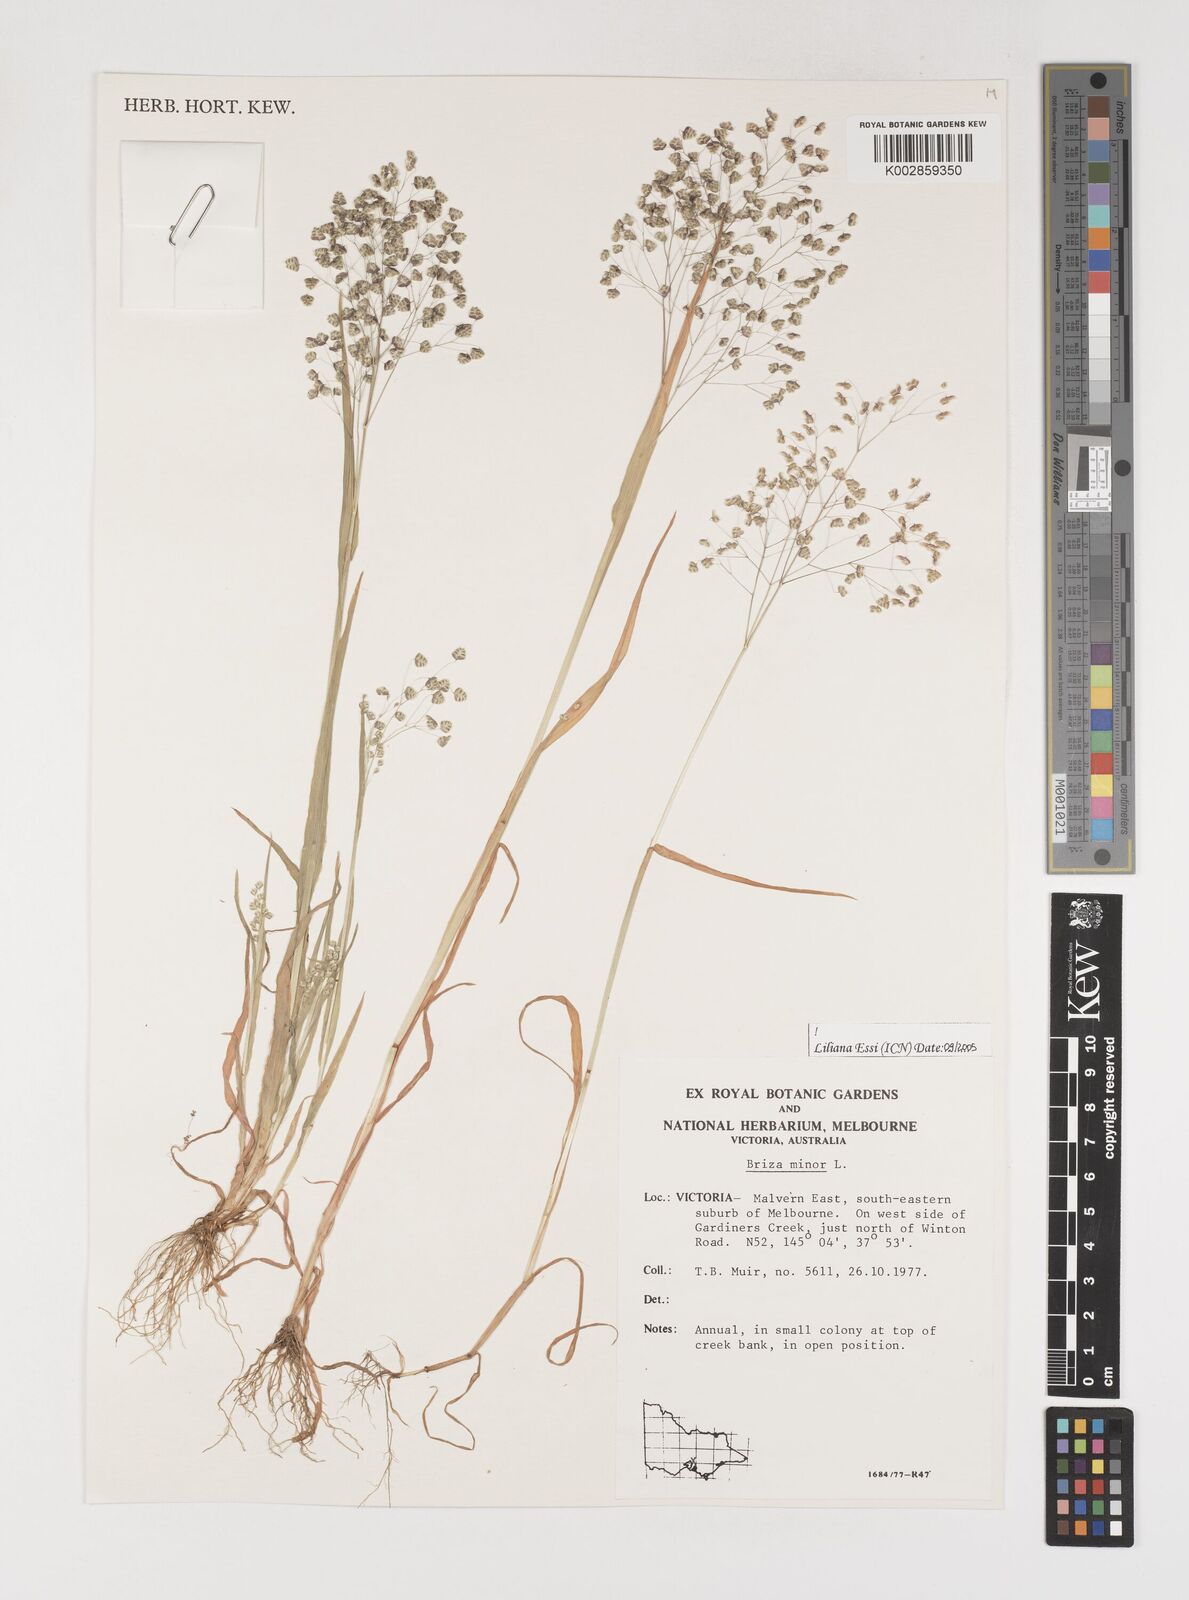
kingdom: Plantae
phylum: Tracheophyta
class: Liliopsida
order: Poales
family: Poaceae
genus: Briza
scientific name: Briza minor
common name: Lesser quaking-grass
